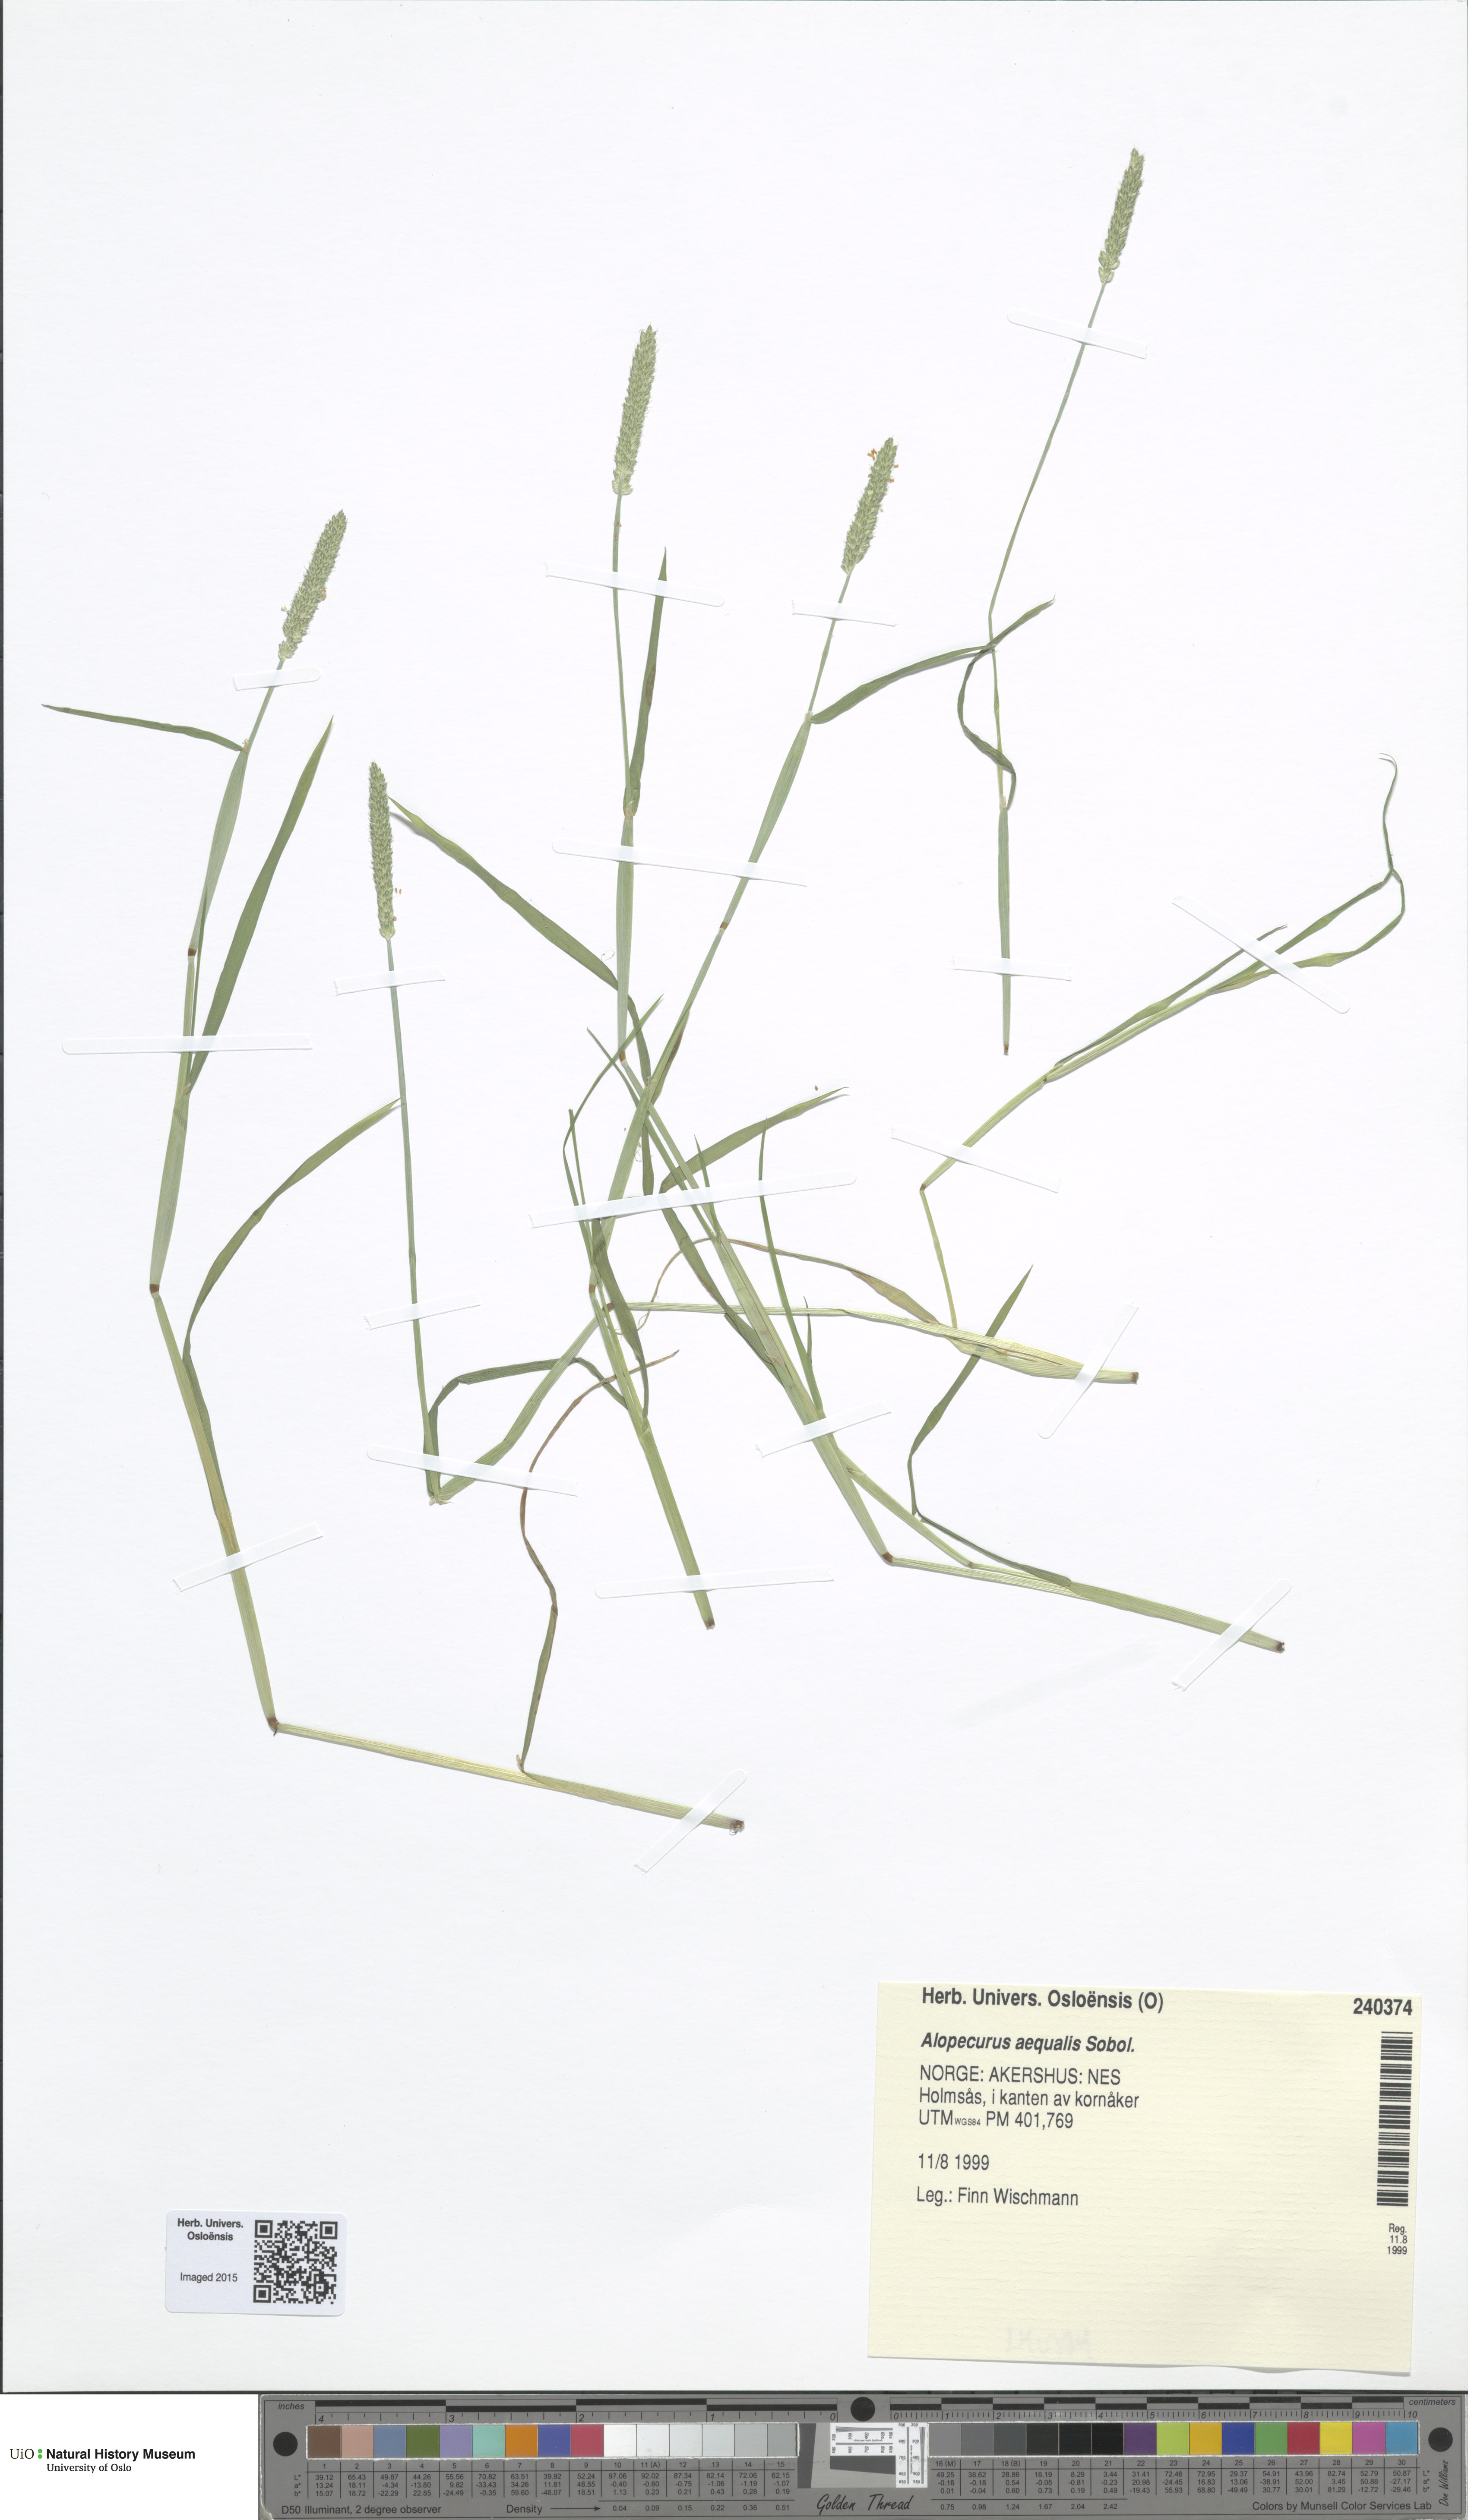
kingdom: Plantae
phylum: Tracheophyta
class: Liliopsida
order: Poales
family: Poaceae
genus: Alopecurus
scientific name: Alopecurus aequalis
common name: Orange foxtail
